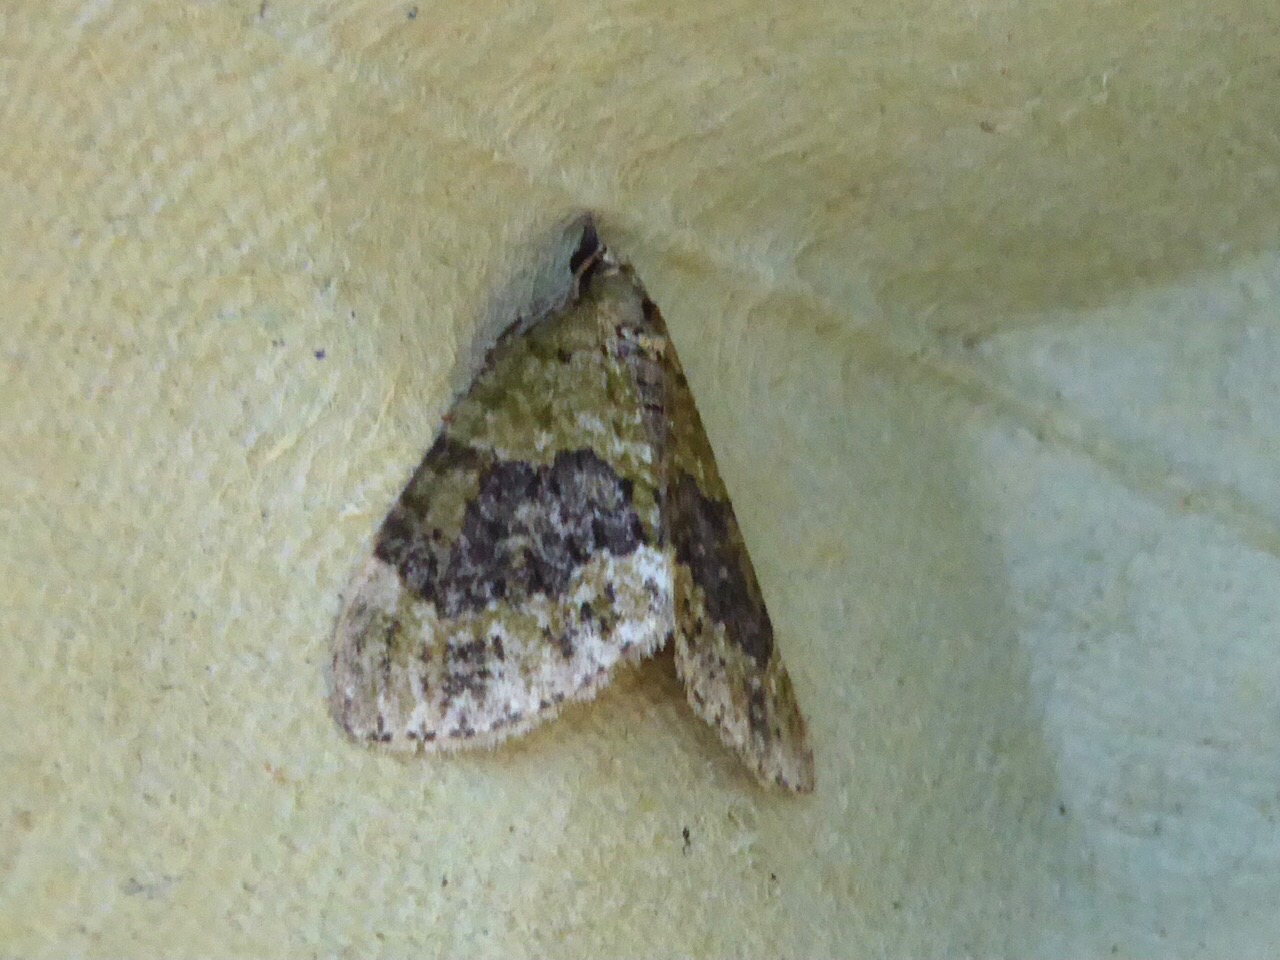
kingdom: Animalia
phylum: Arthropoda
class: Insecta
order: Lepidoptera
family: Geometridae
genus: Acasis
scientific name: Acasis viretata
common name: Tørstetræblomstmåler
